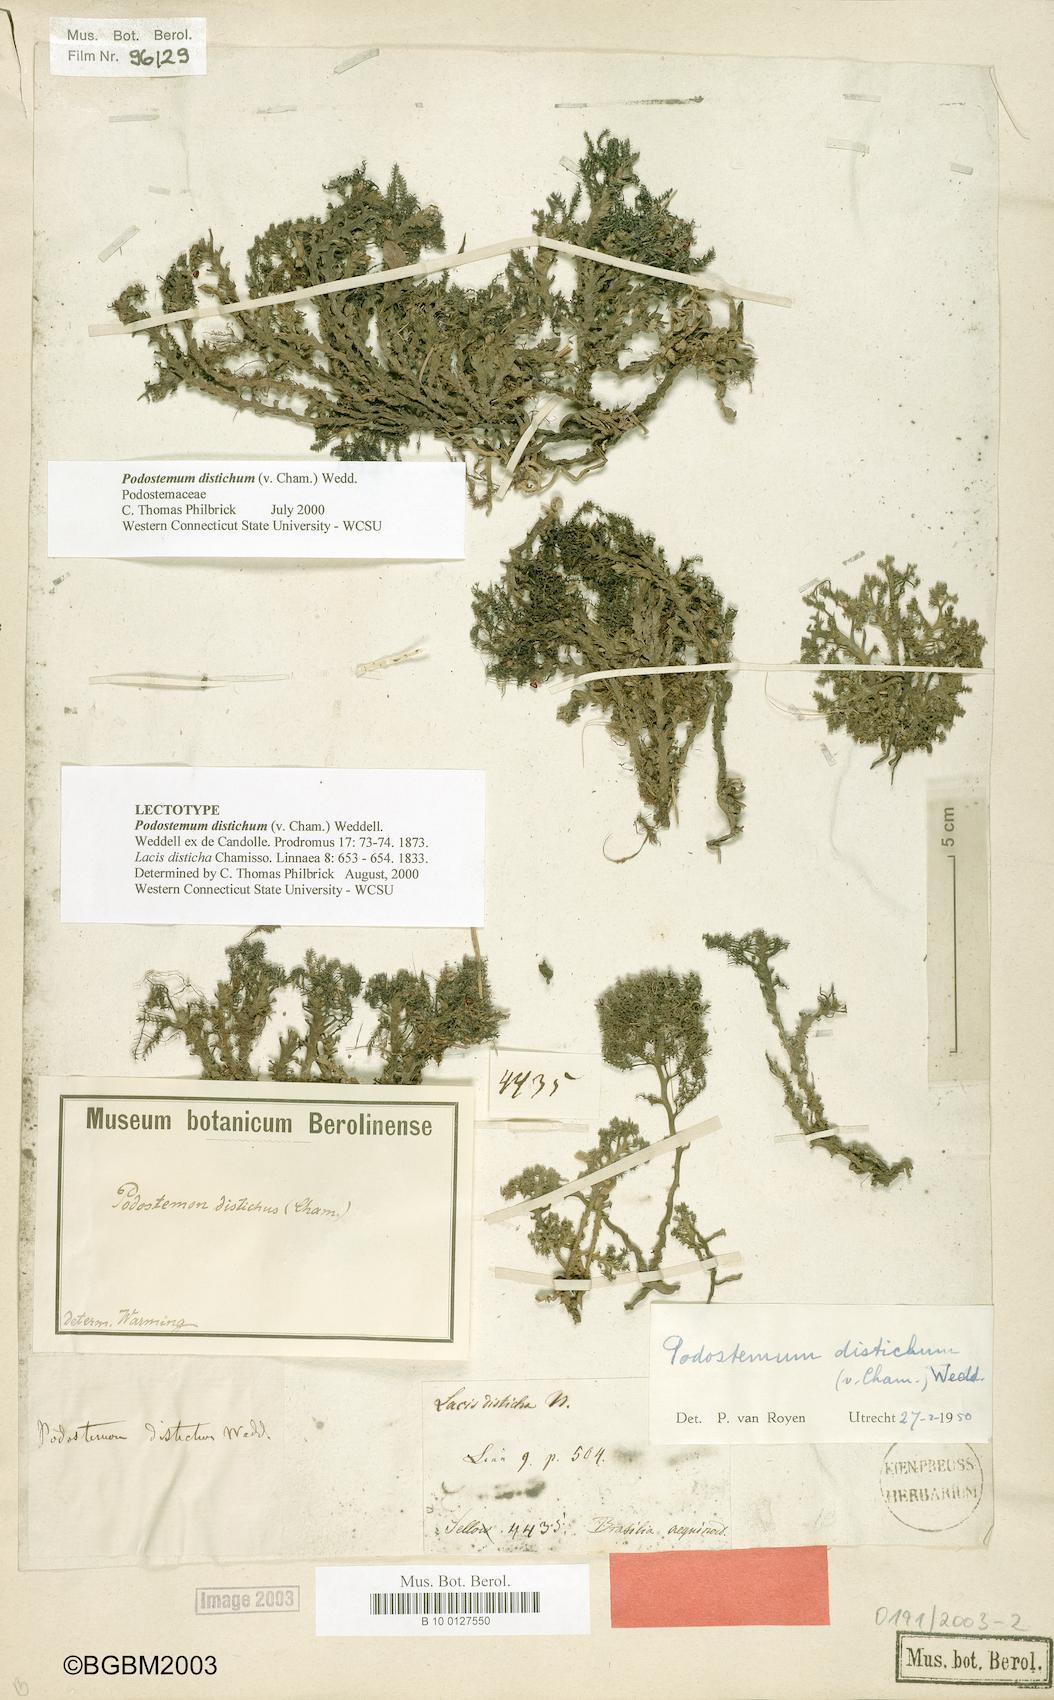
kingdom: Plantae
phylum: Tracheophyta
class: Magnoliopsida
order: Malpighiales
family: Podostemaceae
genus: Podostemum
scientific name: Podostemum distichum
